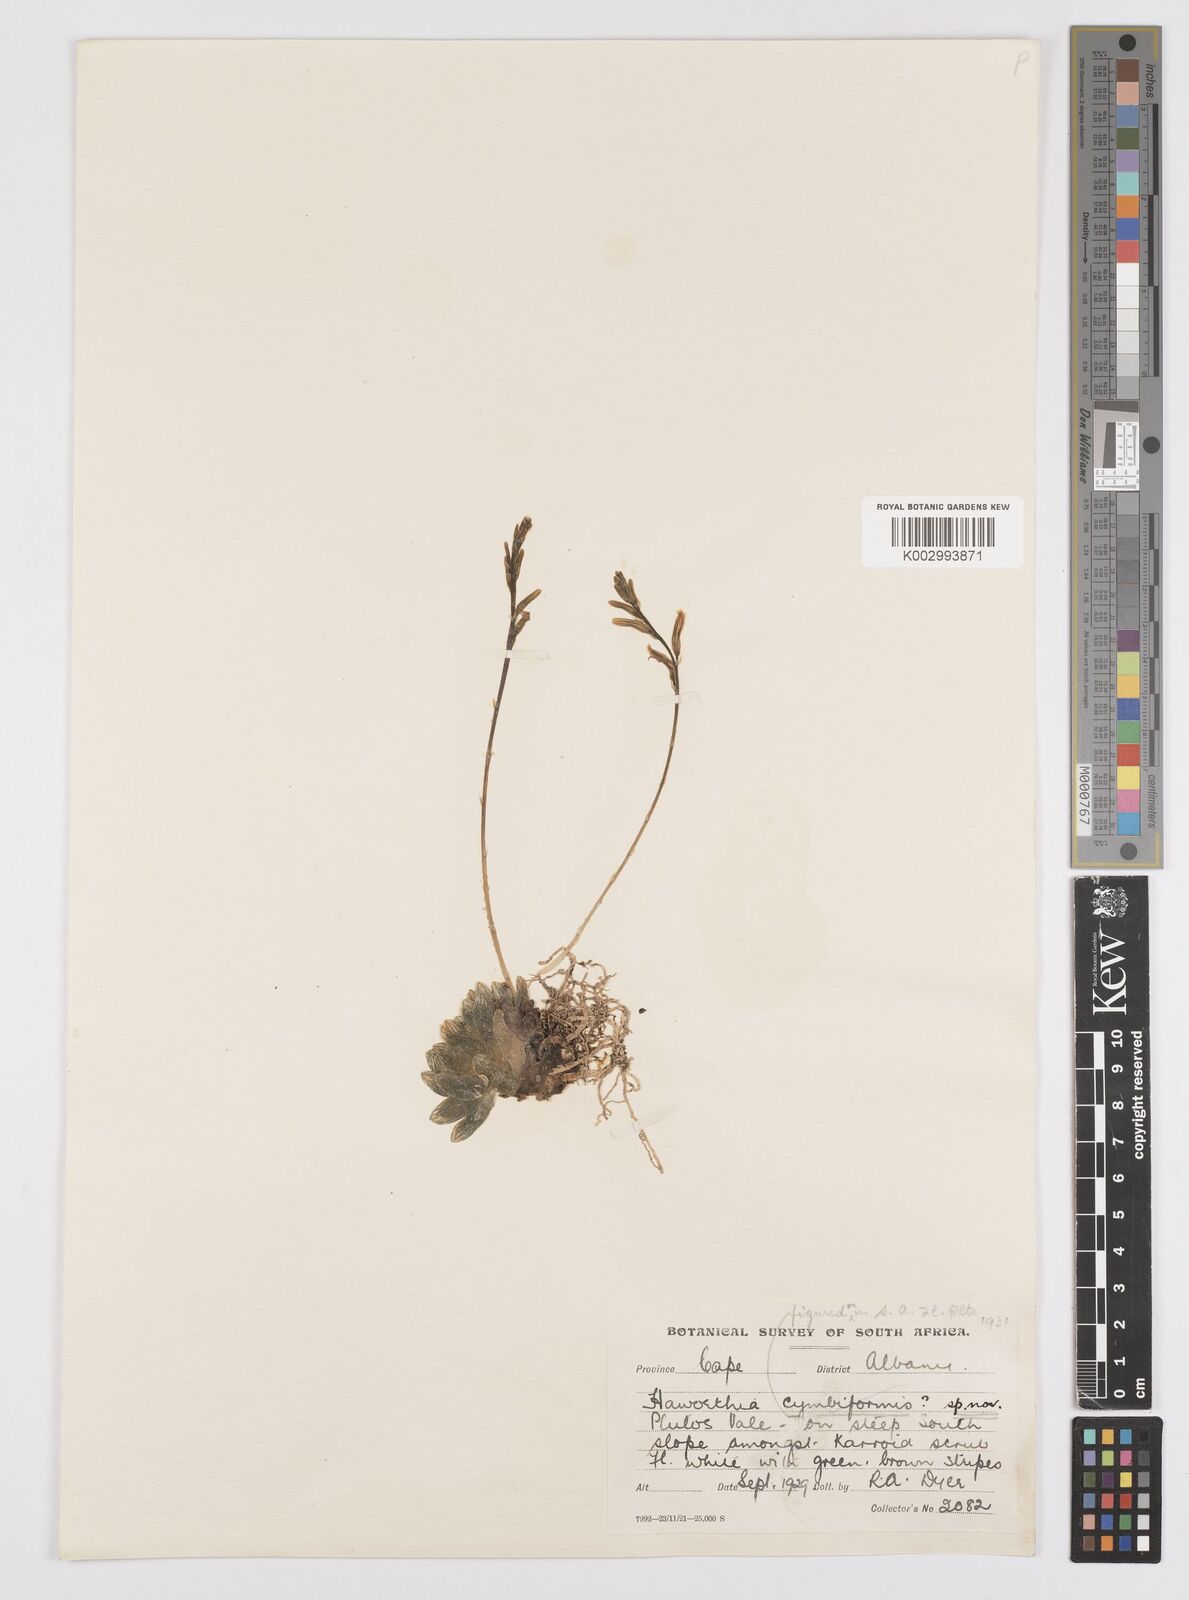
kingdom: Plantae
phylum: Tracheophyta
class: Liliopsida
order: Asparagales
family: Asphodelaceae
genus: Haworthia
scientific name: Haworthia cymbiformis
